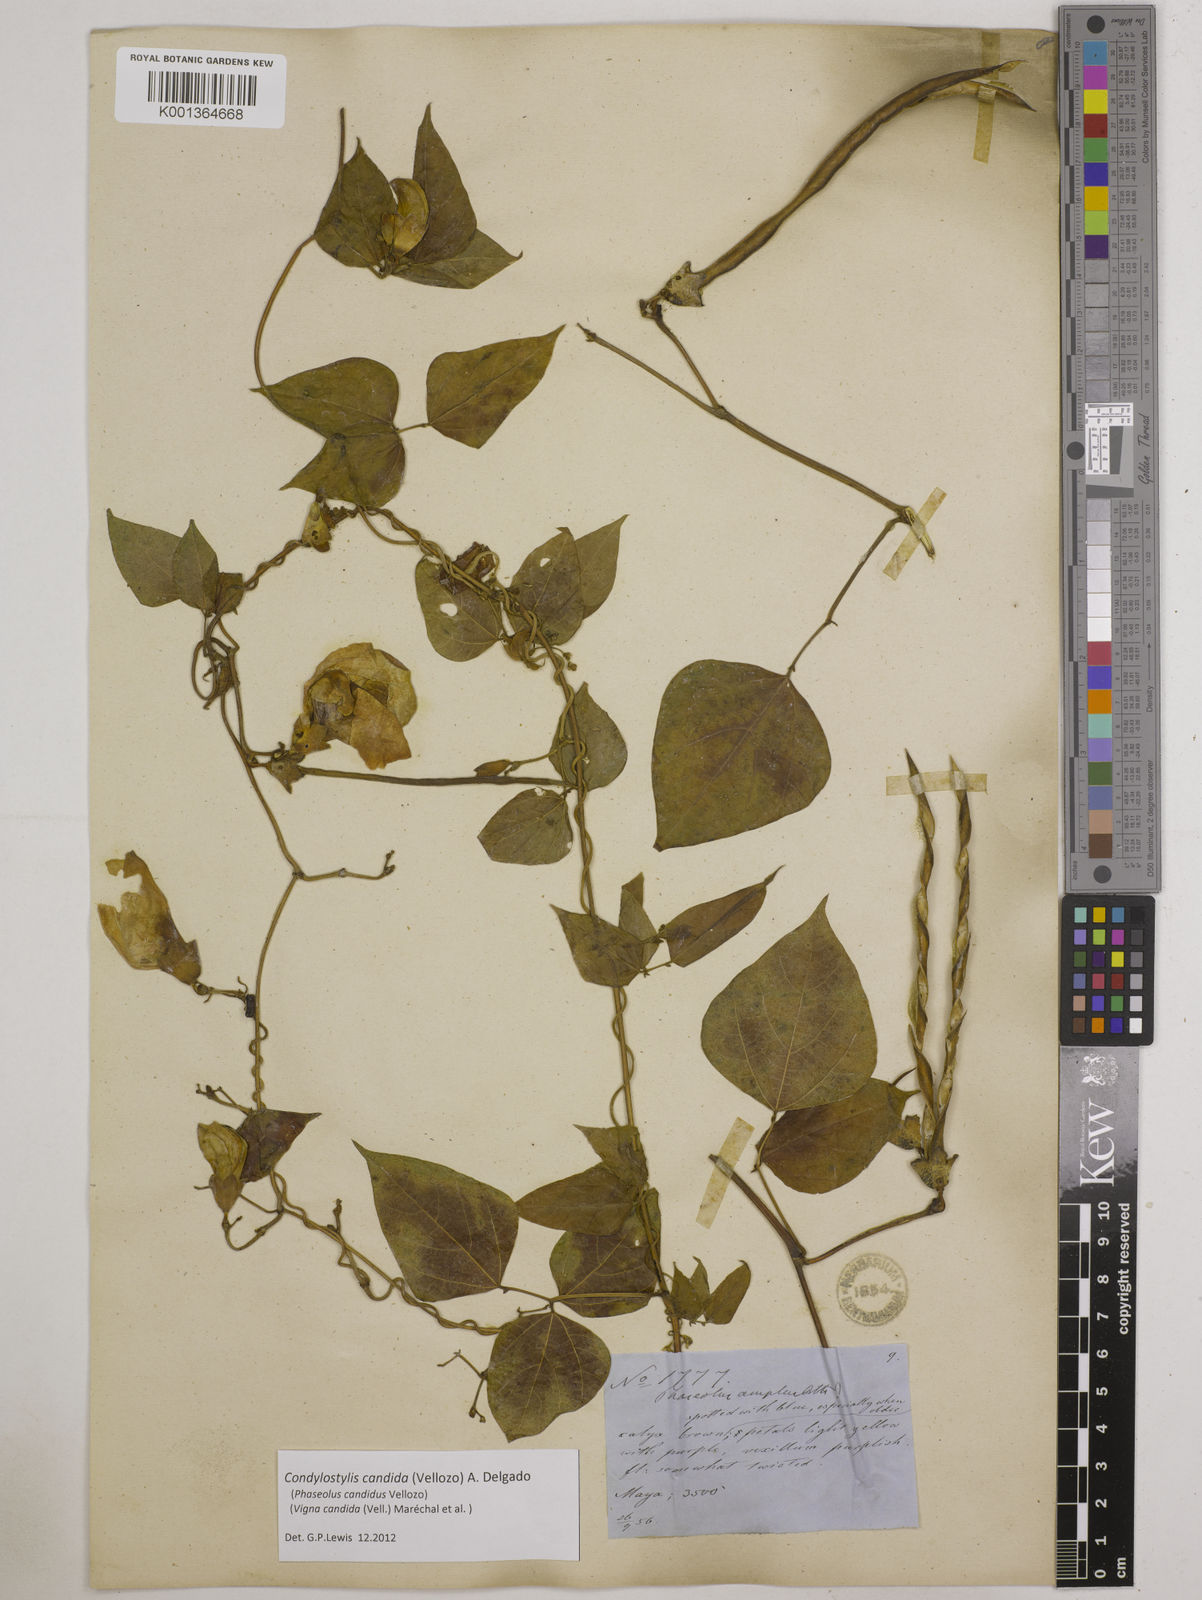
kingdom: Plantae
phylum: Tracheophyta
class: Magnoliopsida
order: Fabales
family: Fabaceae
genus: Condylostylis
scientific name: Condylostylis candida
